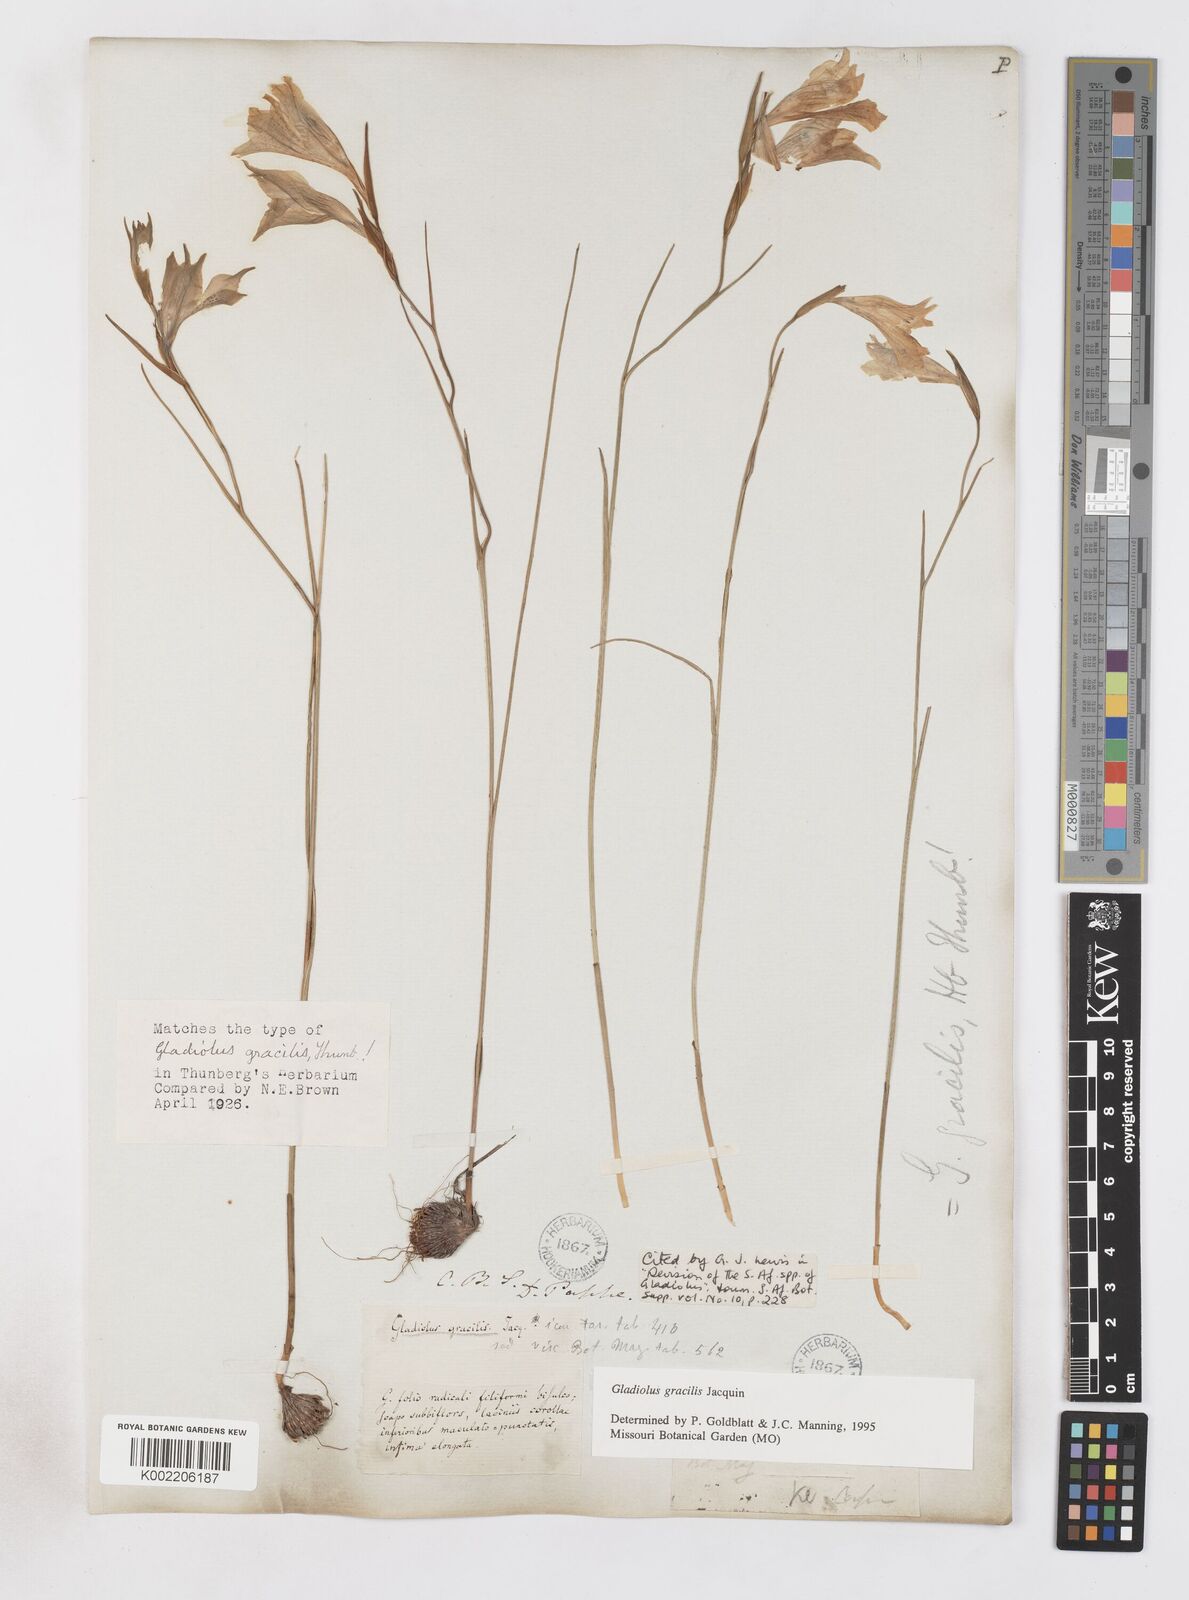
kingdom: Plantae
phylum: Tracheophyta
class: Liliopsida
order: Asparagales
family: Iridaceae
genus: Gladiolus
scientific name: Gladiolus gracilis
